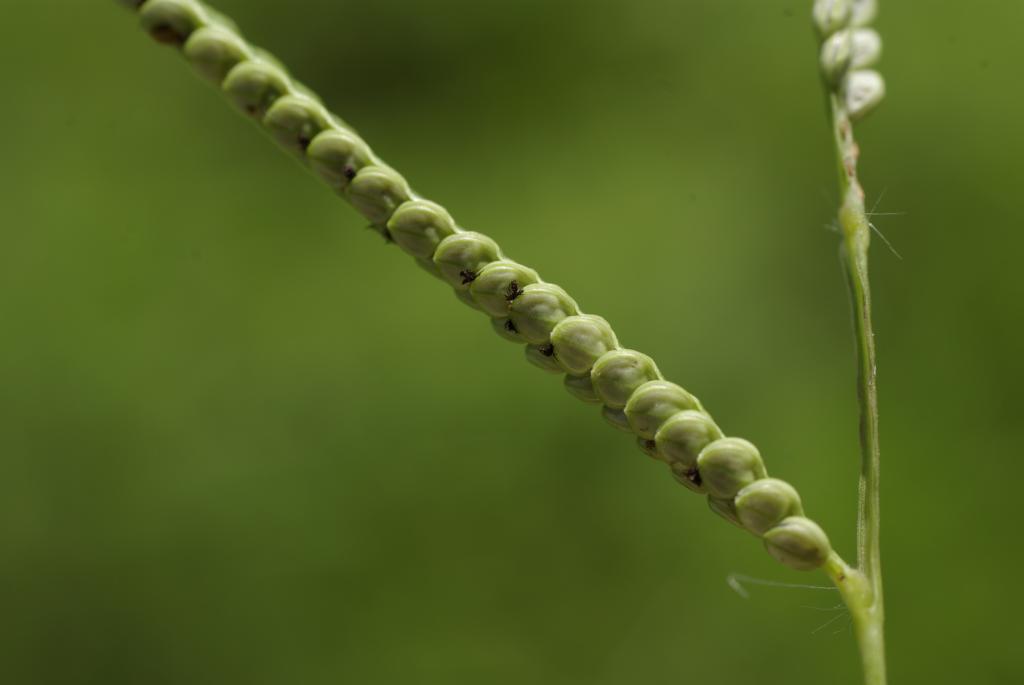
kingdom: Plantae
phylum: Tracheophyta
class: Liliopsida
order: Poales
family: Poaceae
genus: Paspalum
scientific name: Paspalum scrobiculatum
